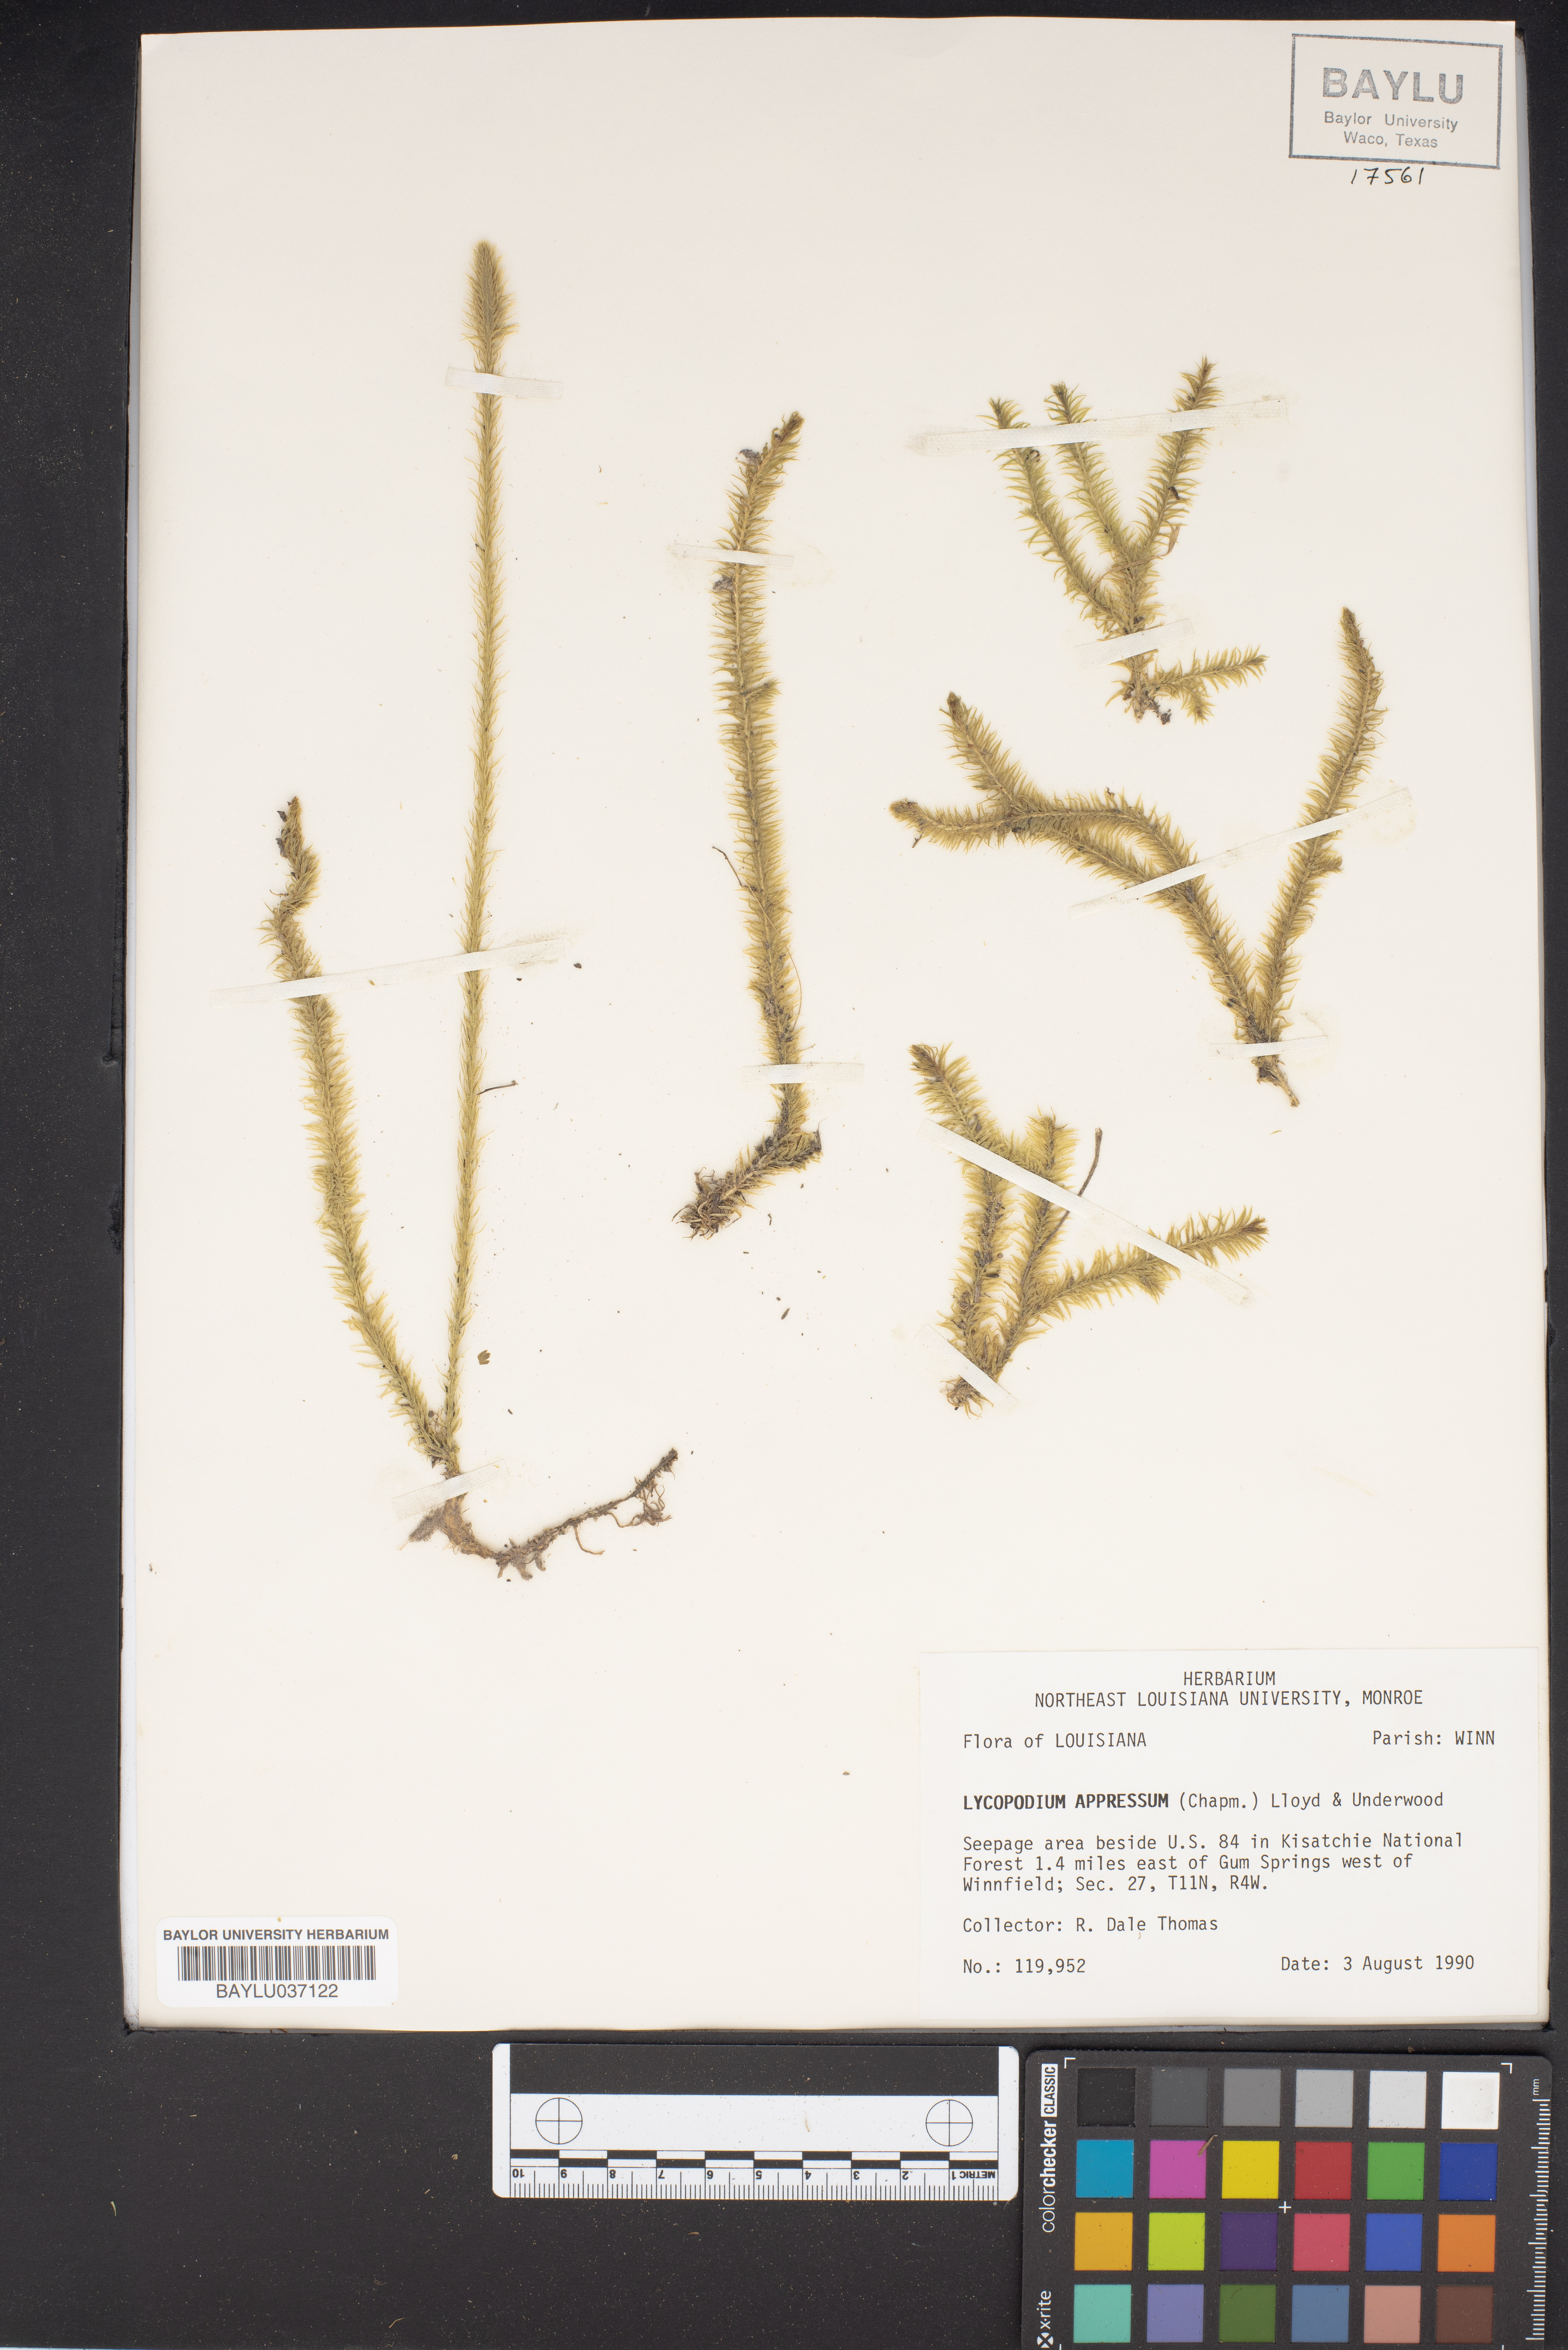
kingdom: Plantae
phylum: Tracheophyta
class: Lycopodiopsida
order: Lycopodiales
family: Lycopodiaceae
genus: Lycopodiella
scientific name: Lycopodiella appressa
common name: Appressed bog clubmoss
